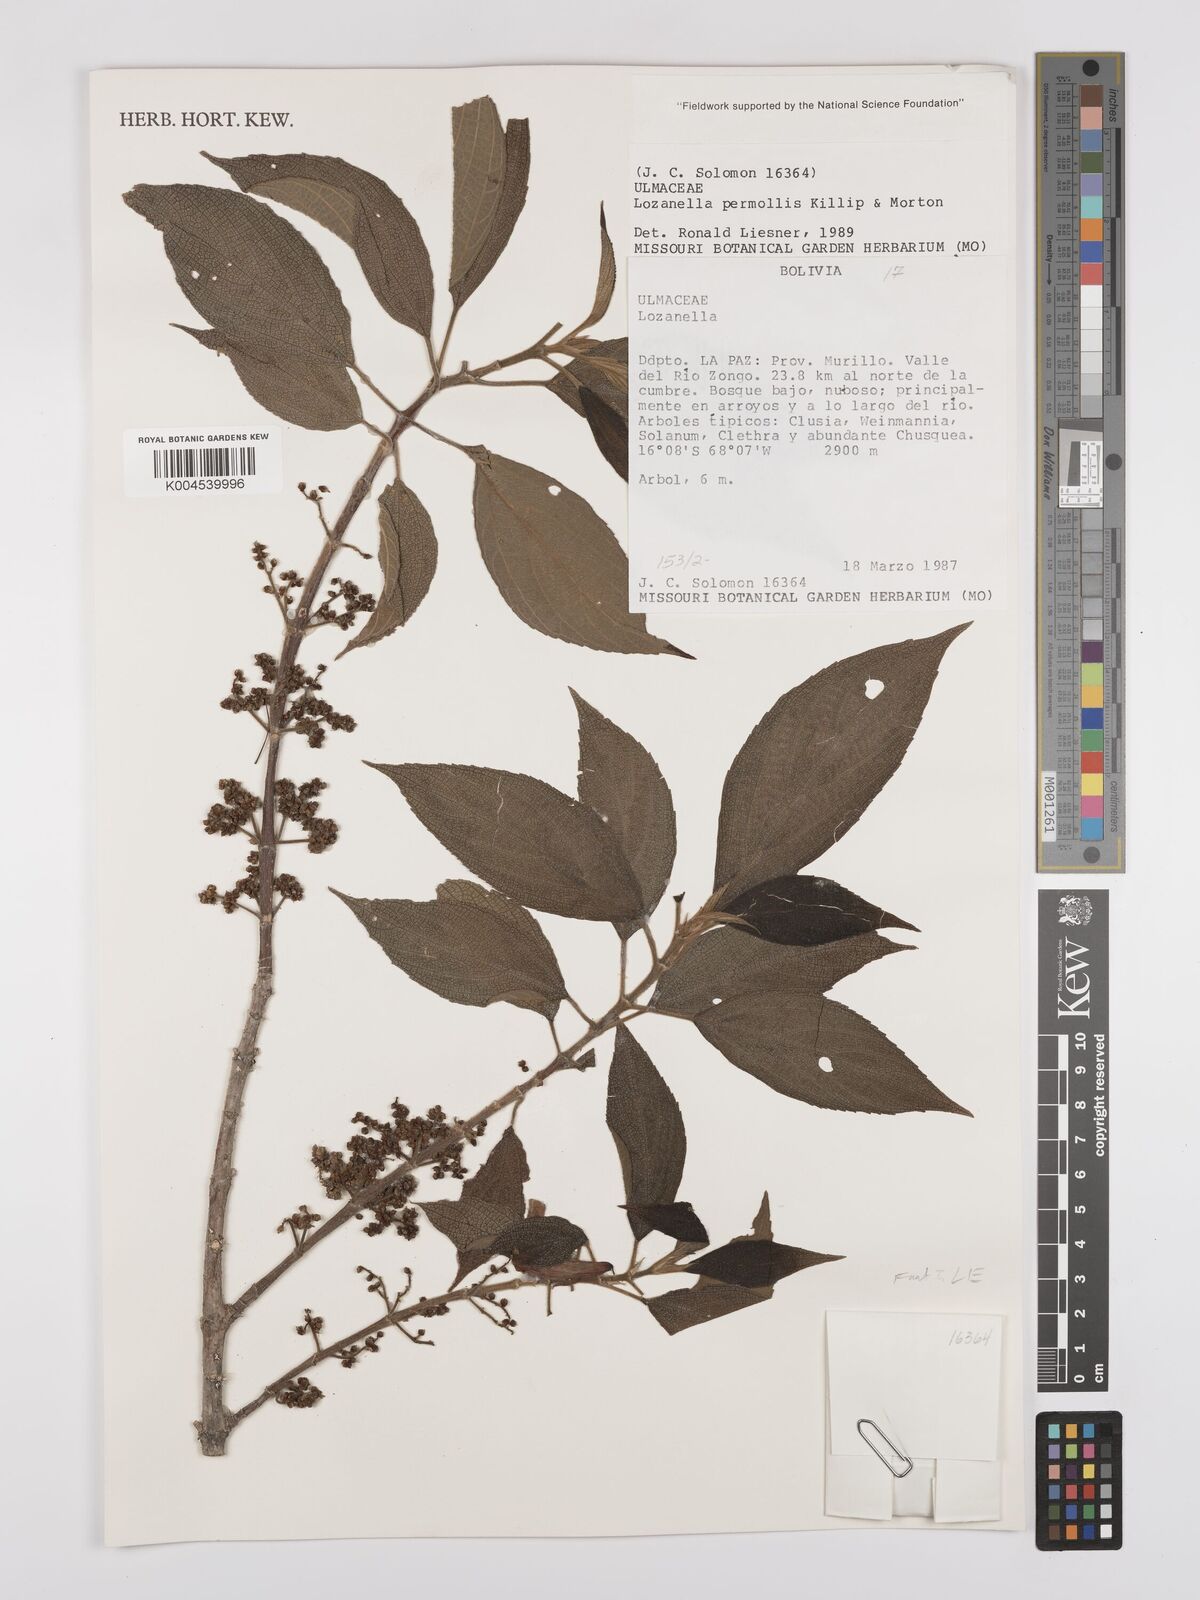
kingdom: Plantae
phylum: Tracheophyta
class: Magnoliopsida
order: Rosales
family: Cannabaceae
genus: Lozanella
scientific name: Lozanella permollis
